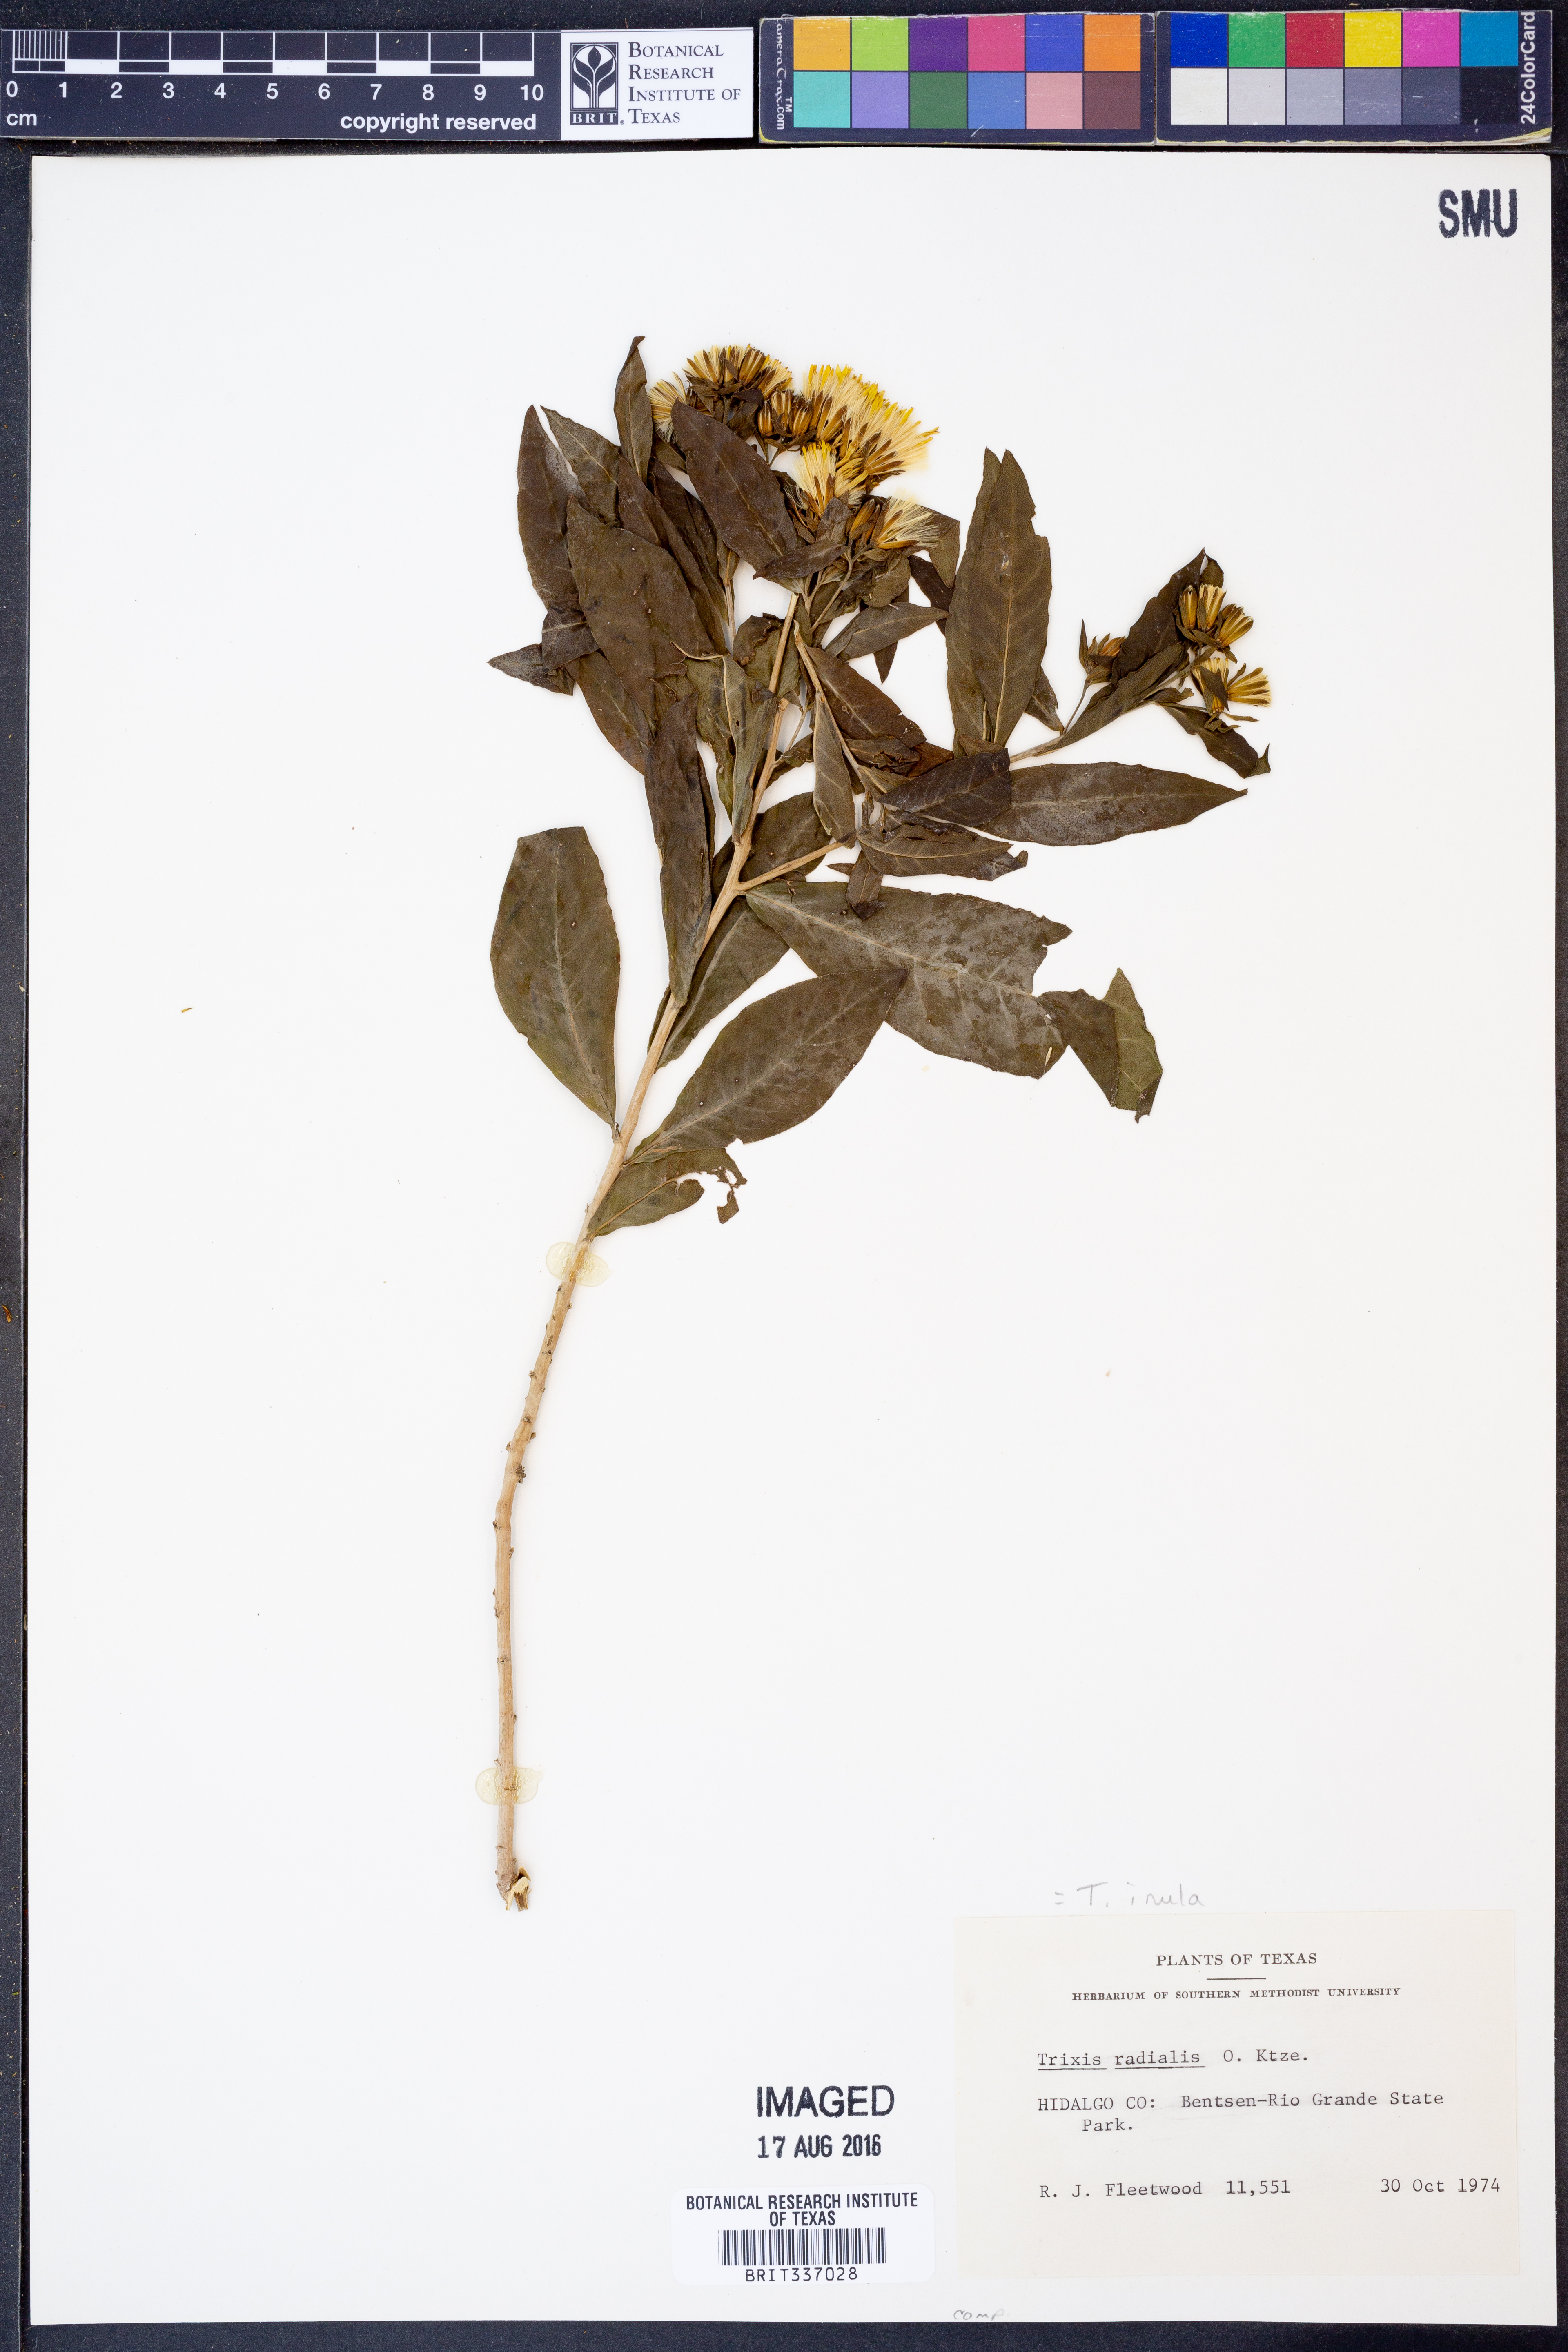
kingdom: Plantae
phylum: Tracheophyta
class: Magnoliopsida
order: Asterales
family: Asteraceae
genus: Trixis
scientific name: Trixis inula
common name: Tropical threefold
